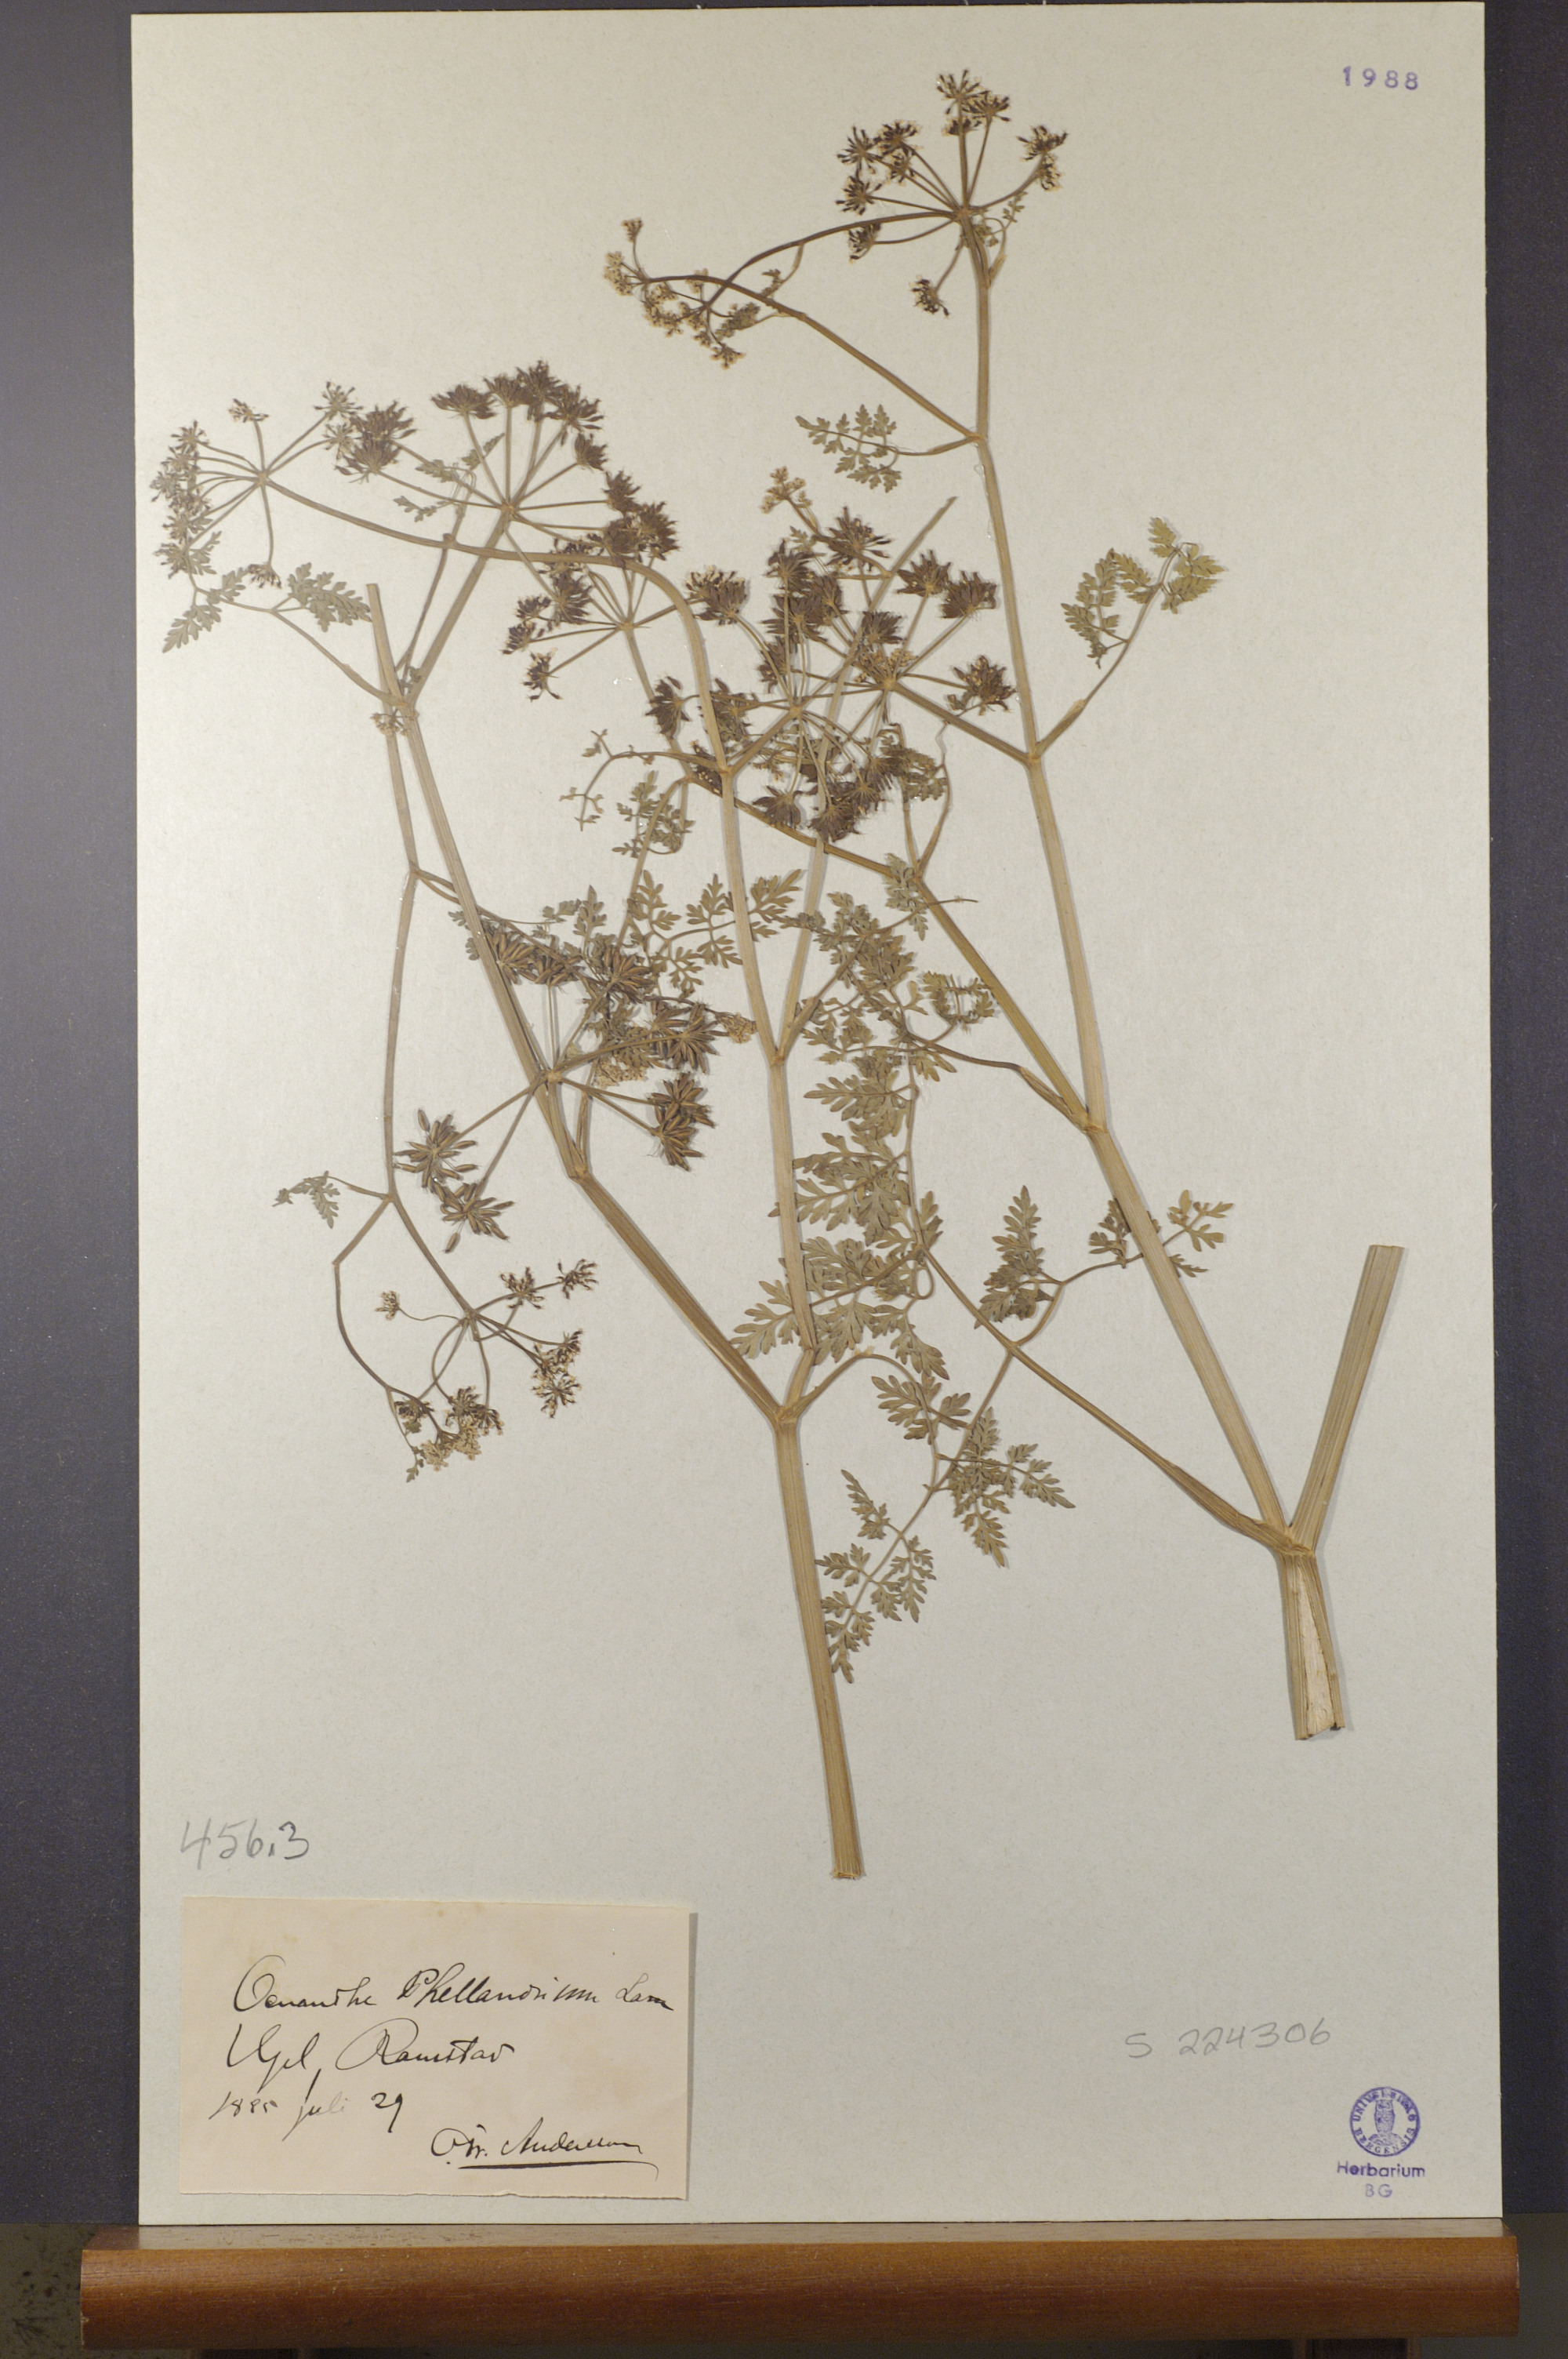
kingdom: Plantae
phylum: Tracheophyta
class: Magnoliopsida
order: Apiales
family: Apiaceae
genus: Oenanthe
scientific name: Oenanthe aquatica
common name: Fine-leaved water-dropwort
